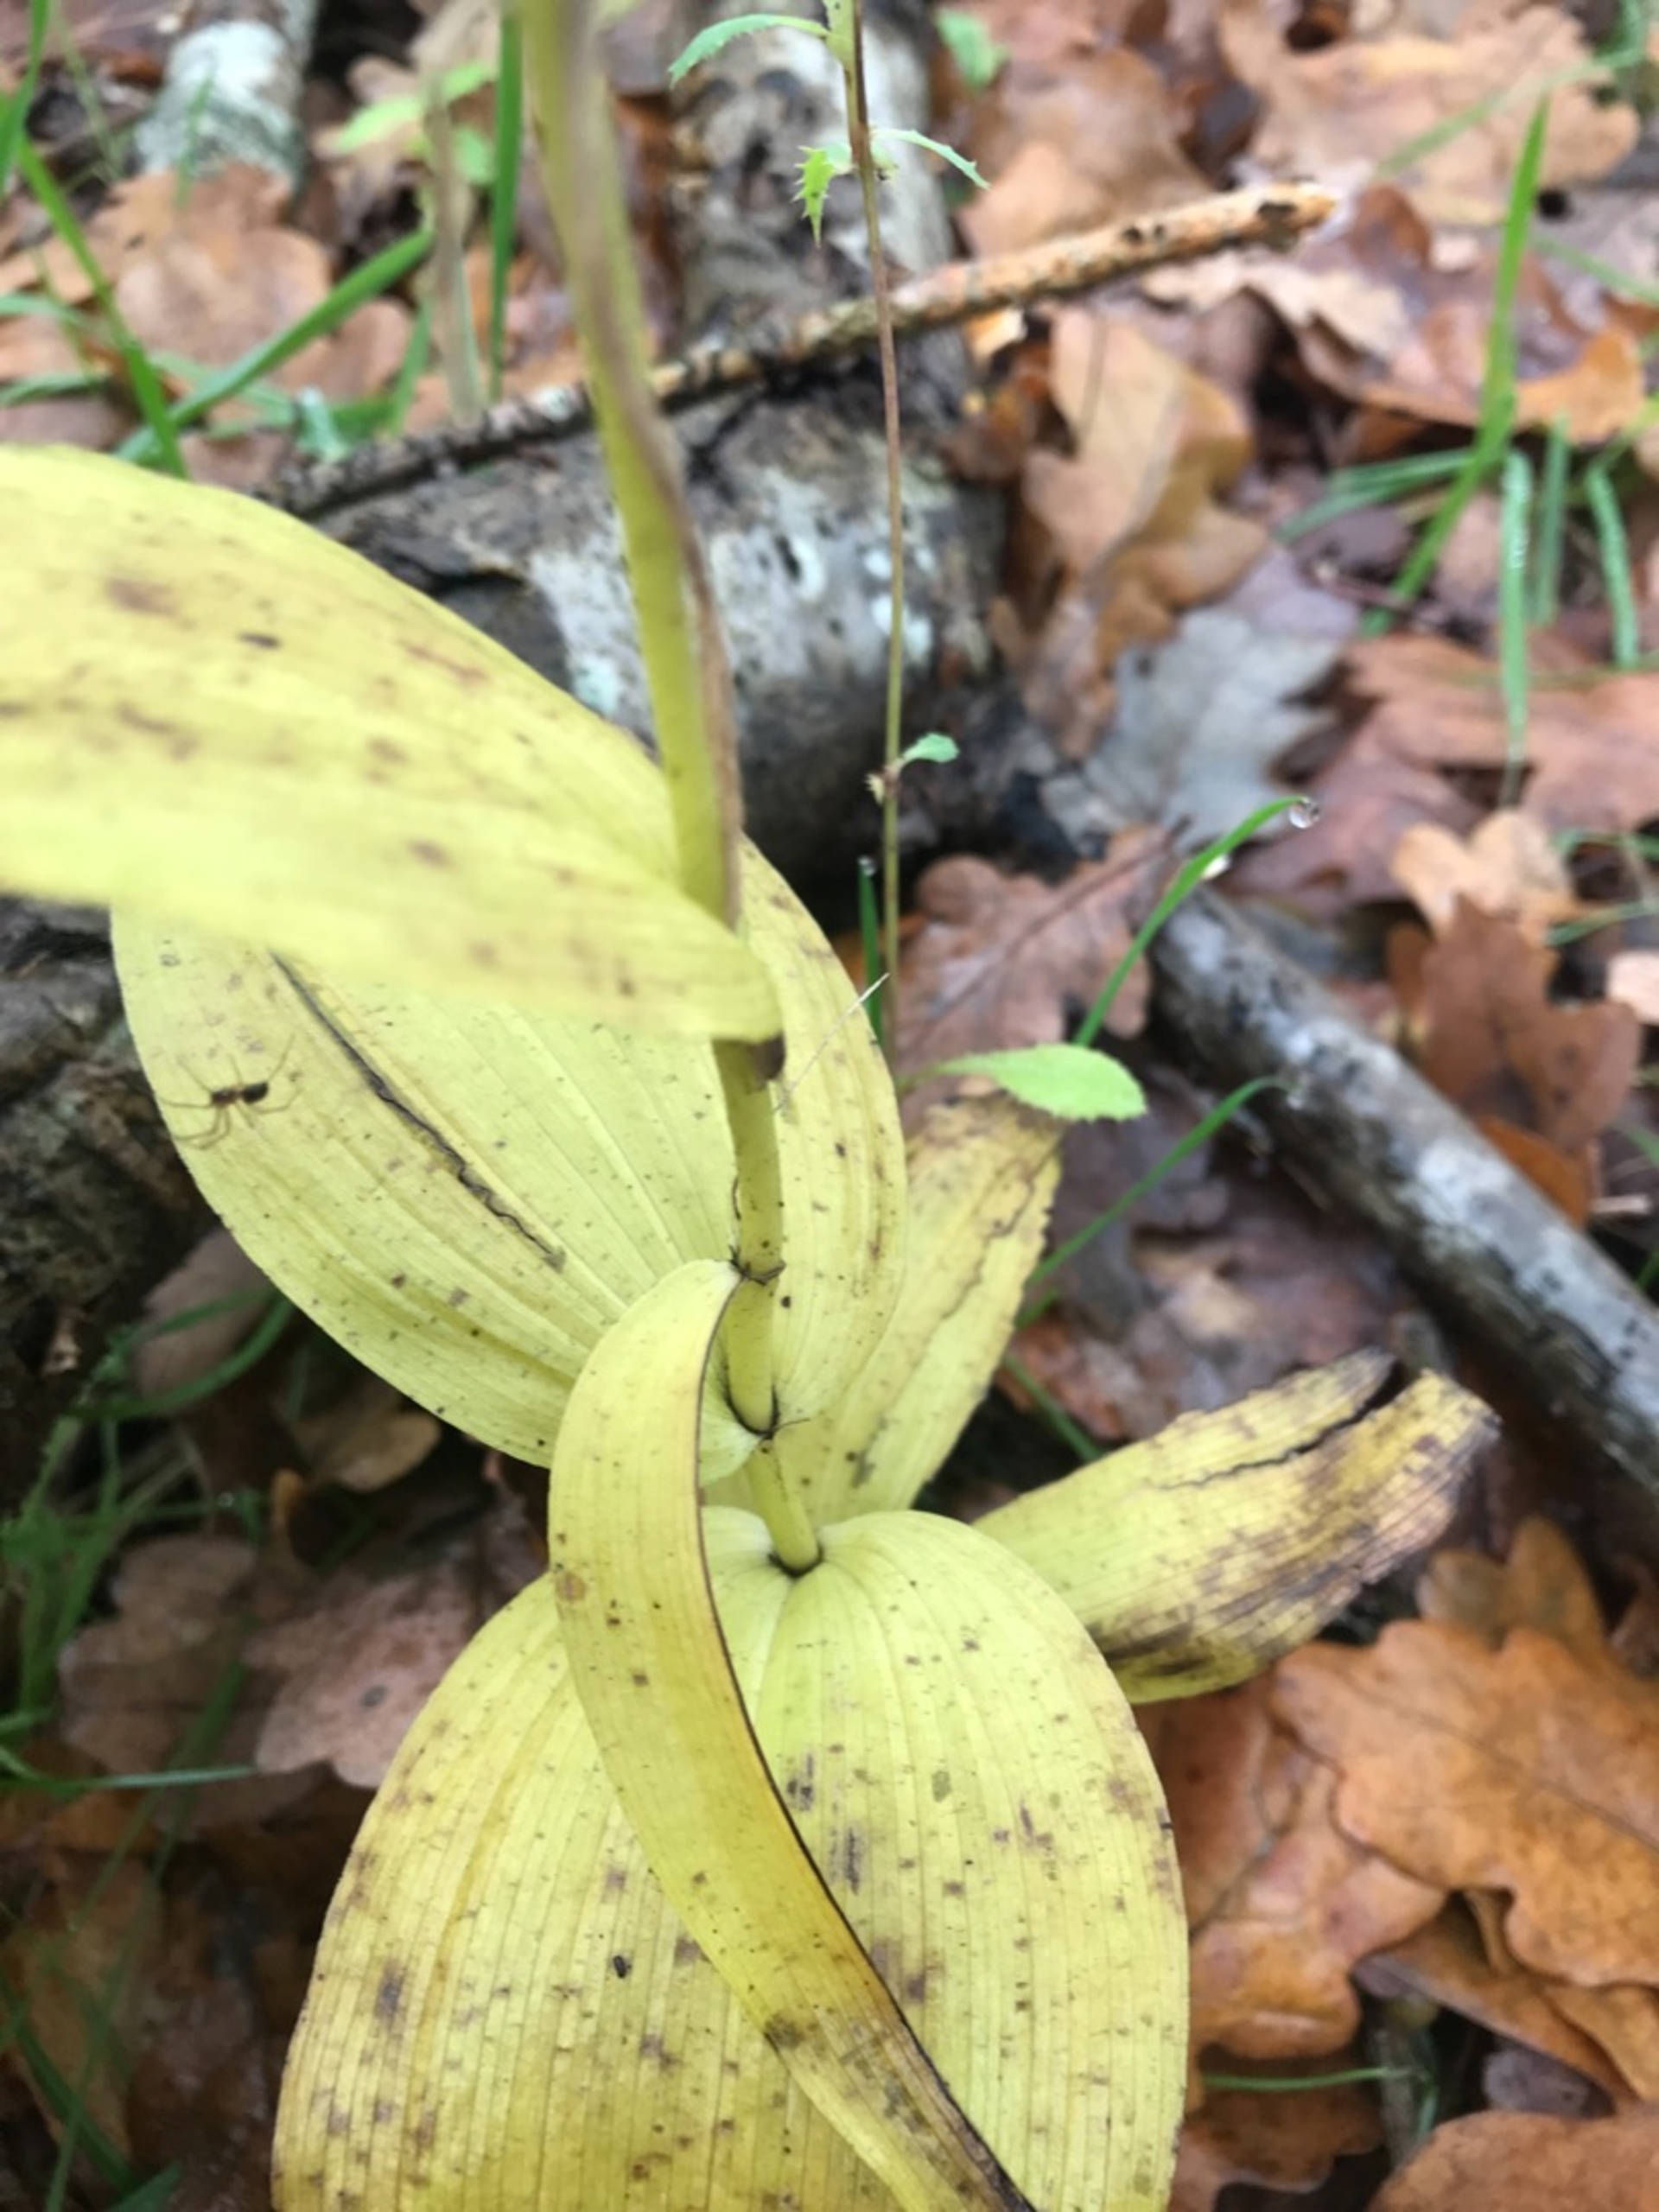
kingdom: Plantae
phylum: Tracheophyta
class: Liliopsida
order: Asparagales
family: Orchidaceae
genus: Epipactis
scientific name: Epipactis helleborine
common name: Skov-hullæbe
